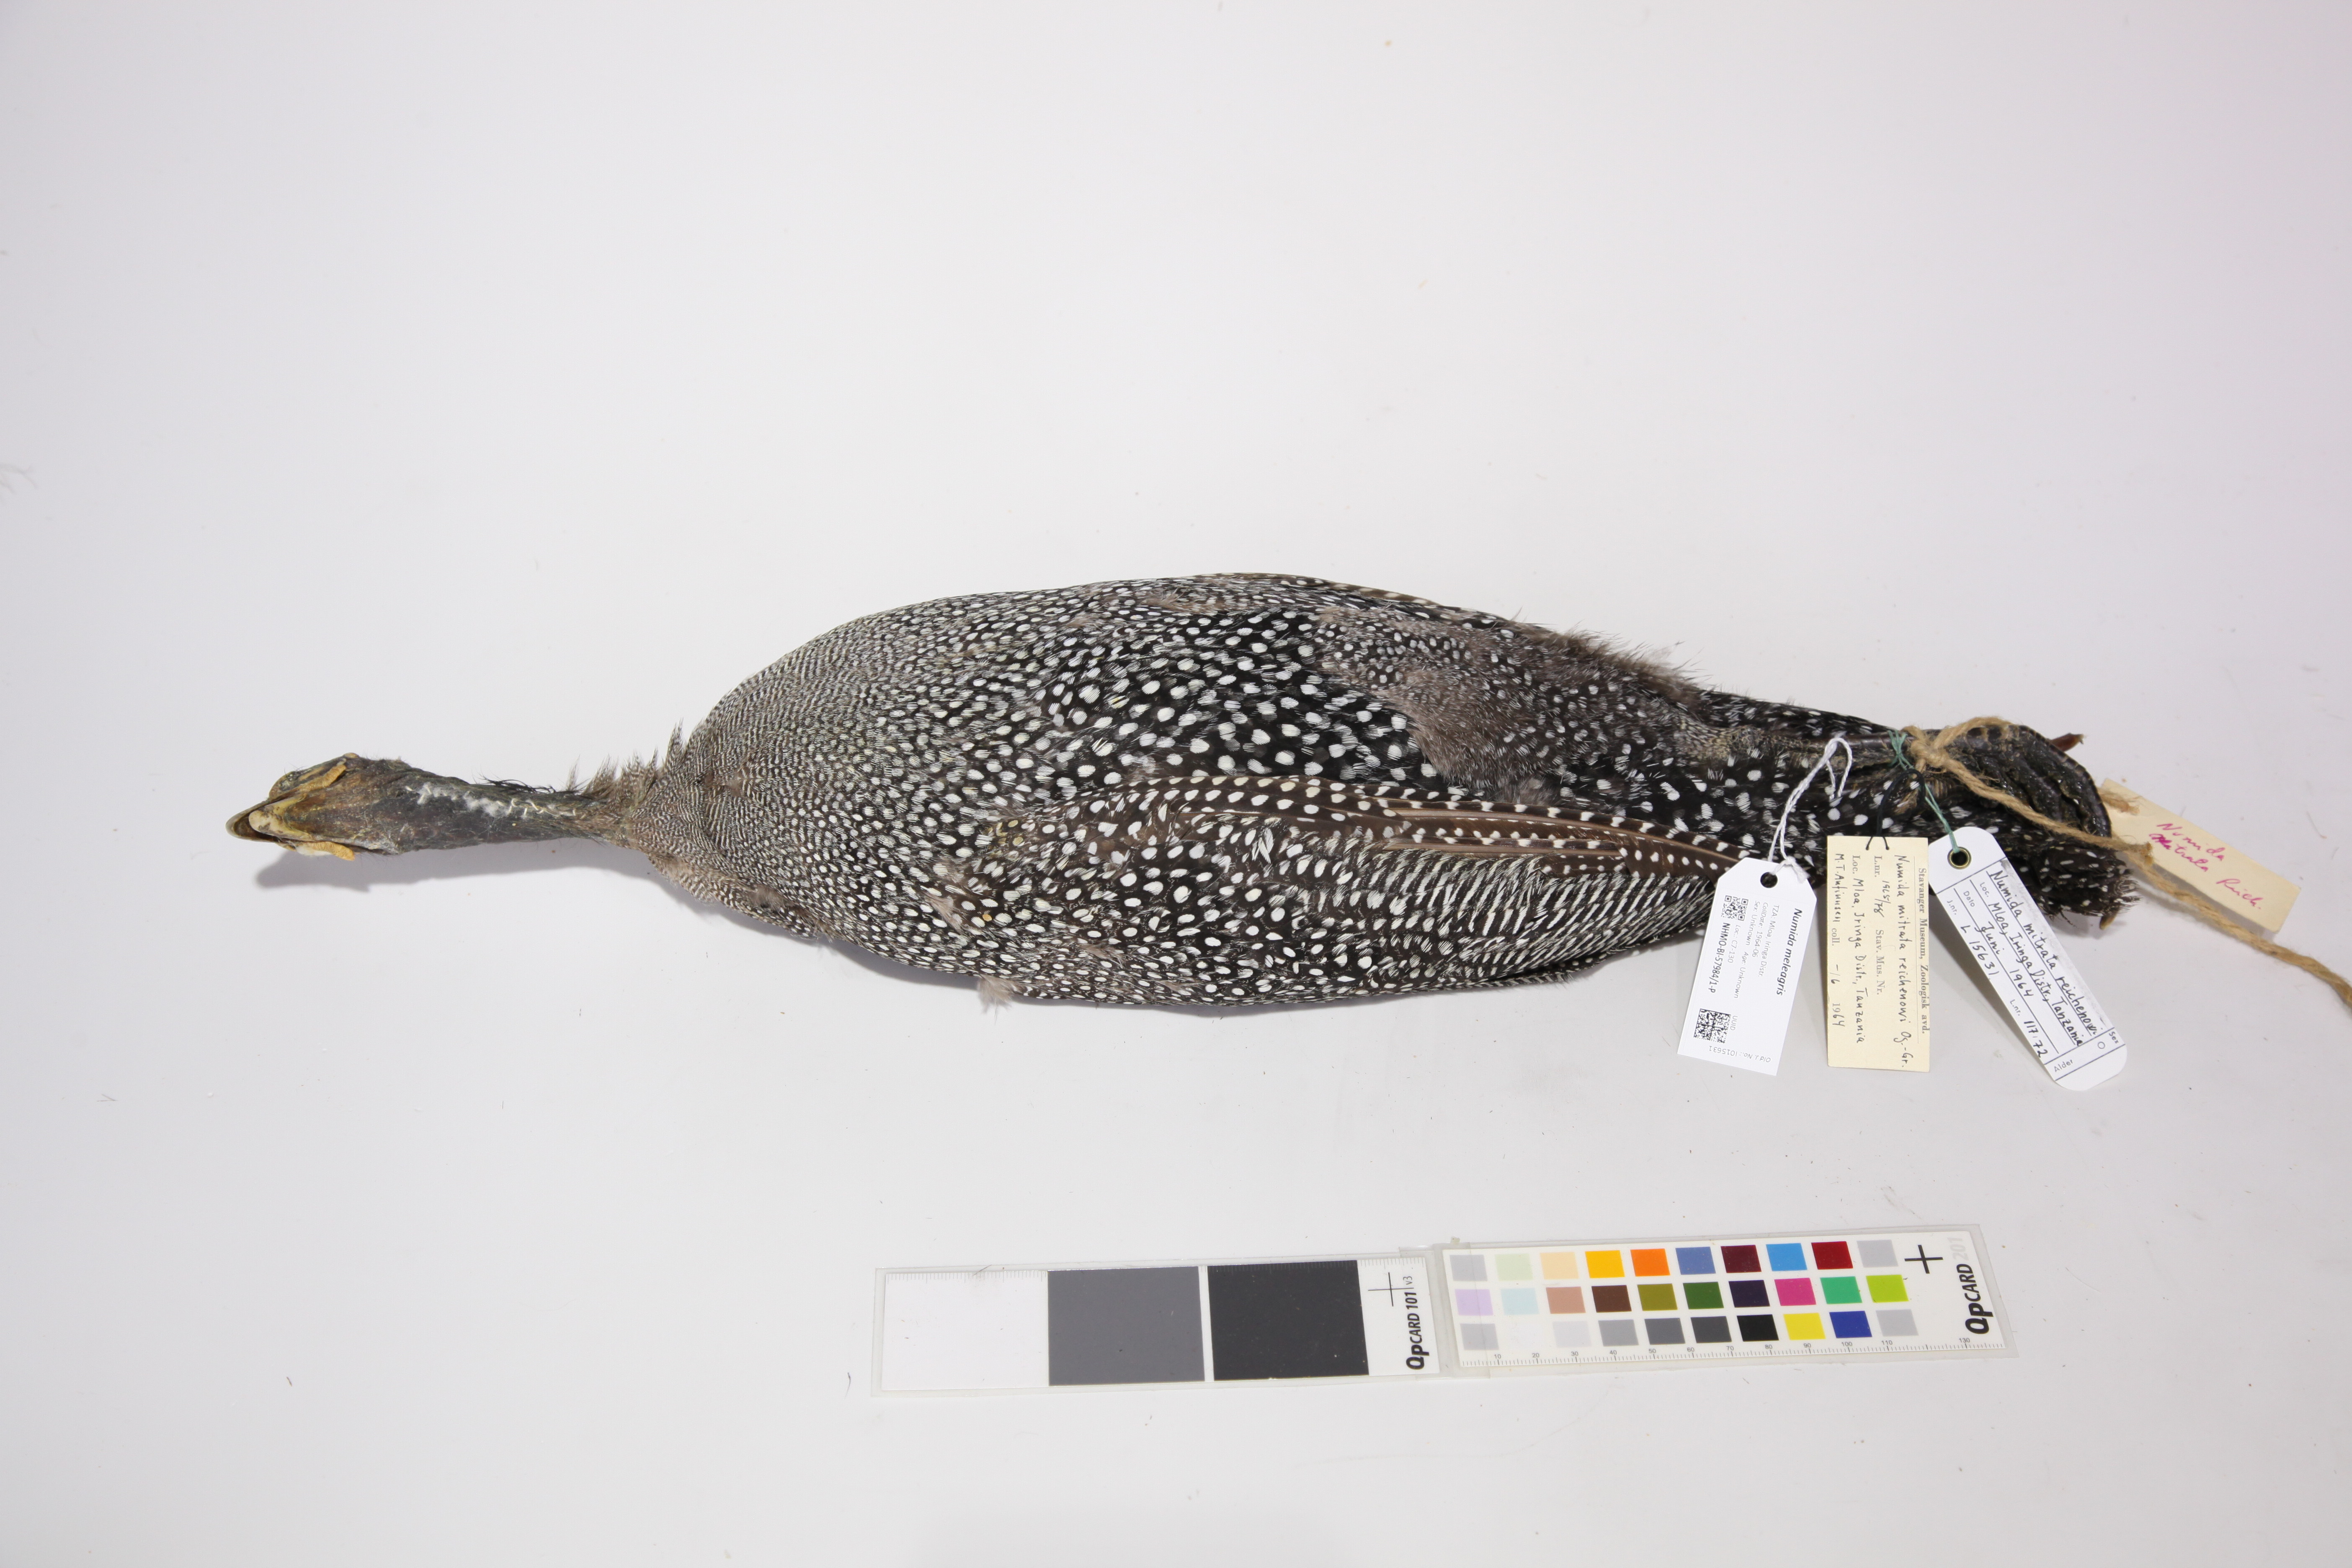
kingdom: Animalia
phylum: Chordata
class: Aves
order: Galliformes
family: Numididae
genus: Numida
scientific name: Numida meleagris
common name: Helmeted guineafowl
